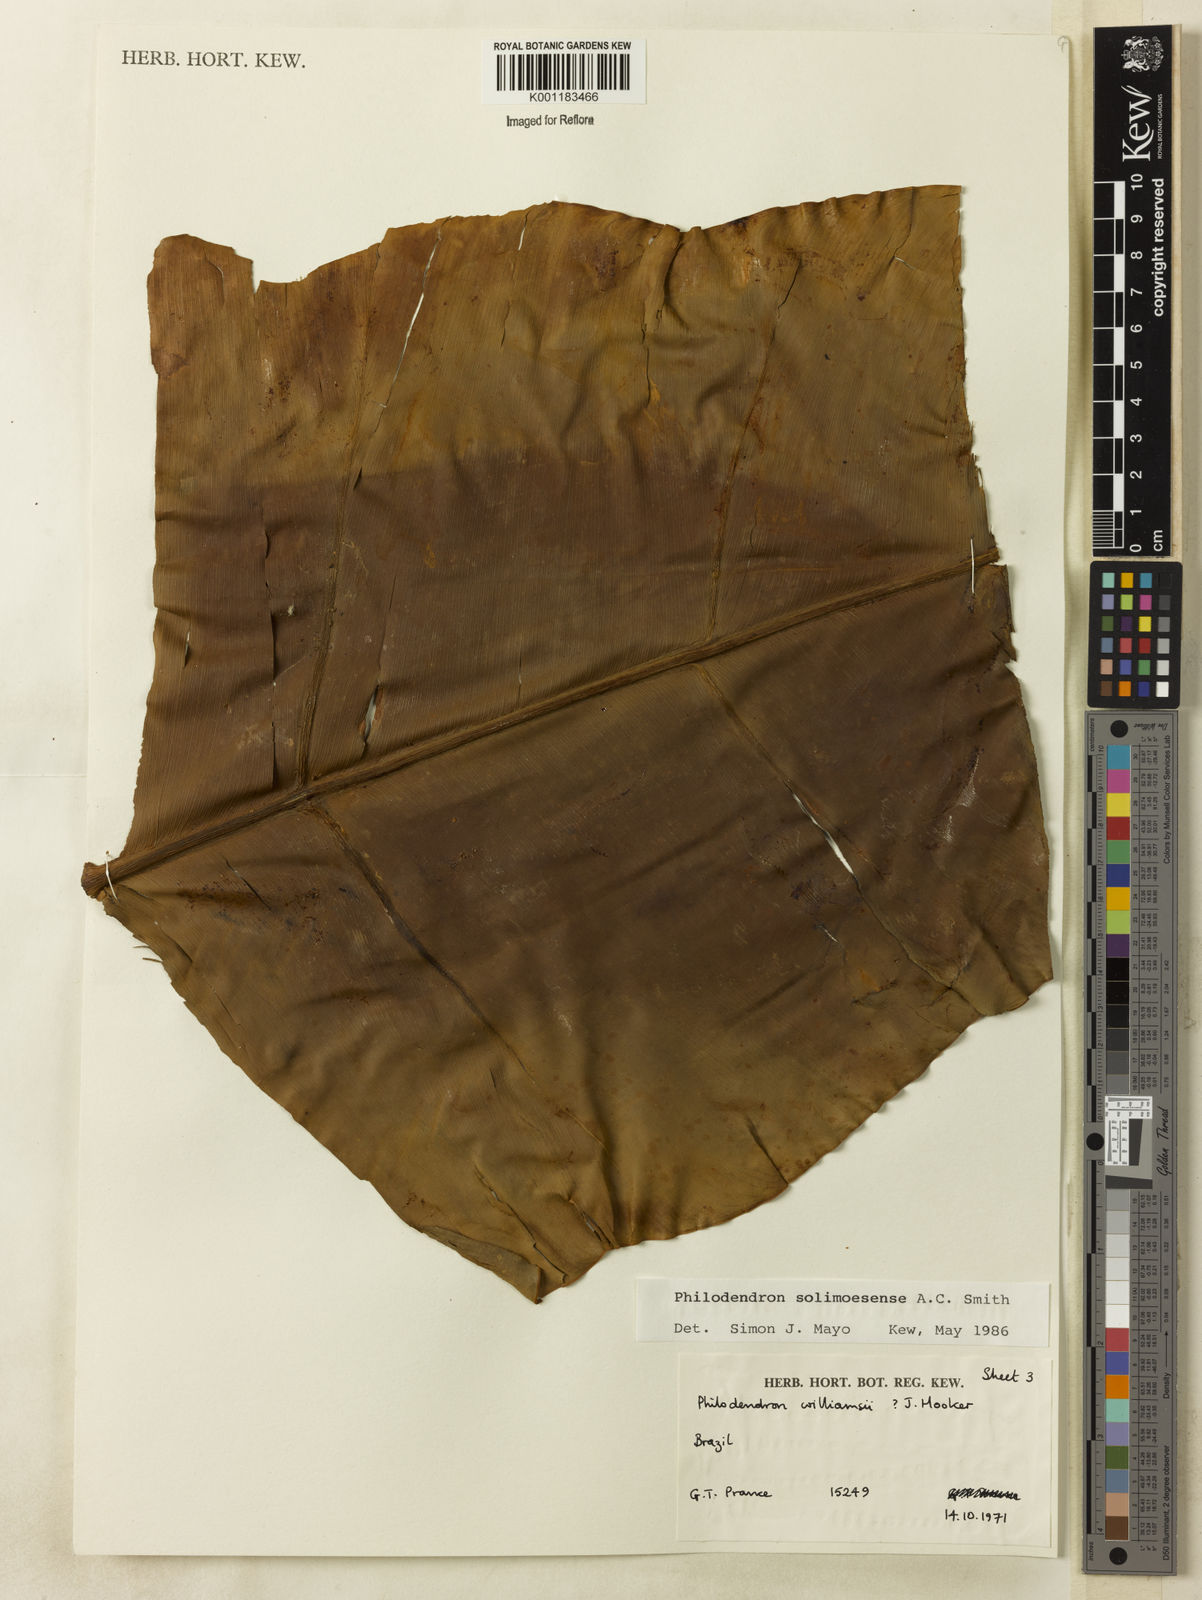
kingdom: Plantae
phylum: Tracheophyta
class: Liliopsida
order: Alismatales
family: Araceae
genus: Thaumatophyllum
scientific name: Thaumatophyllum solimoesense
